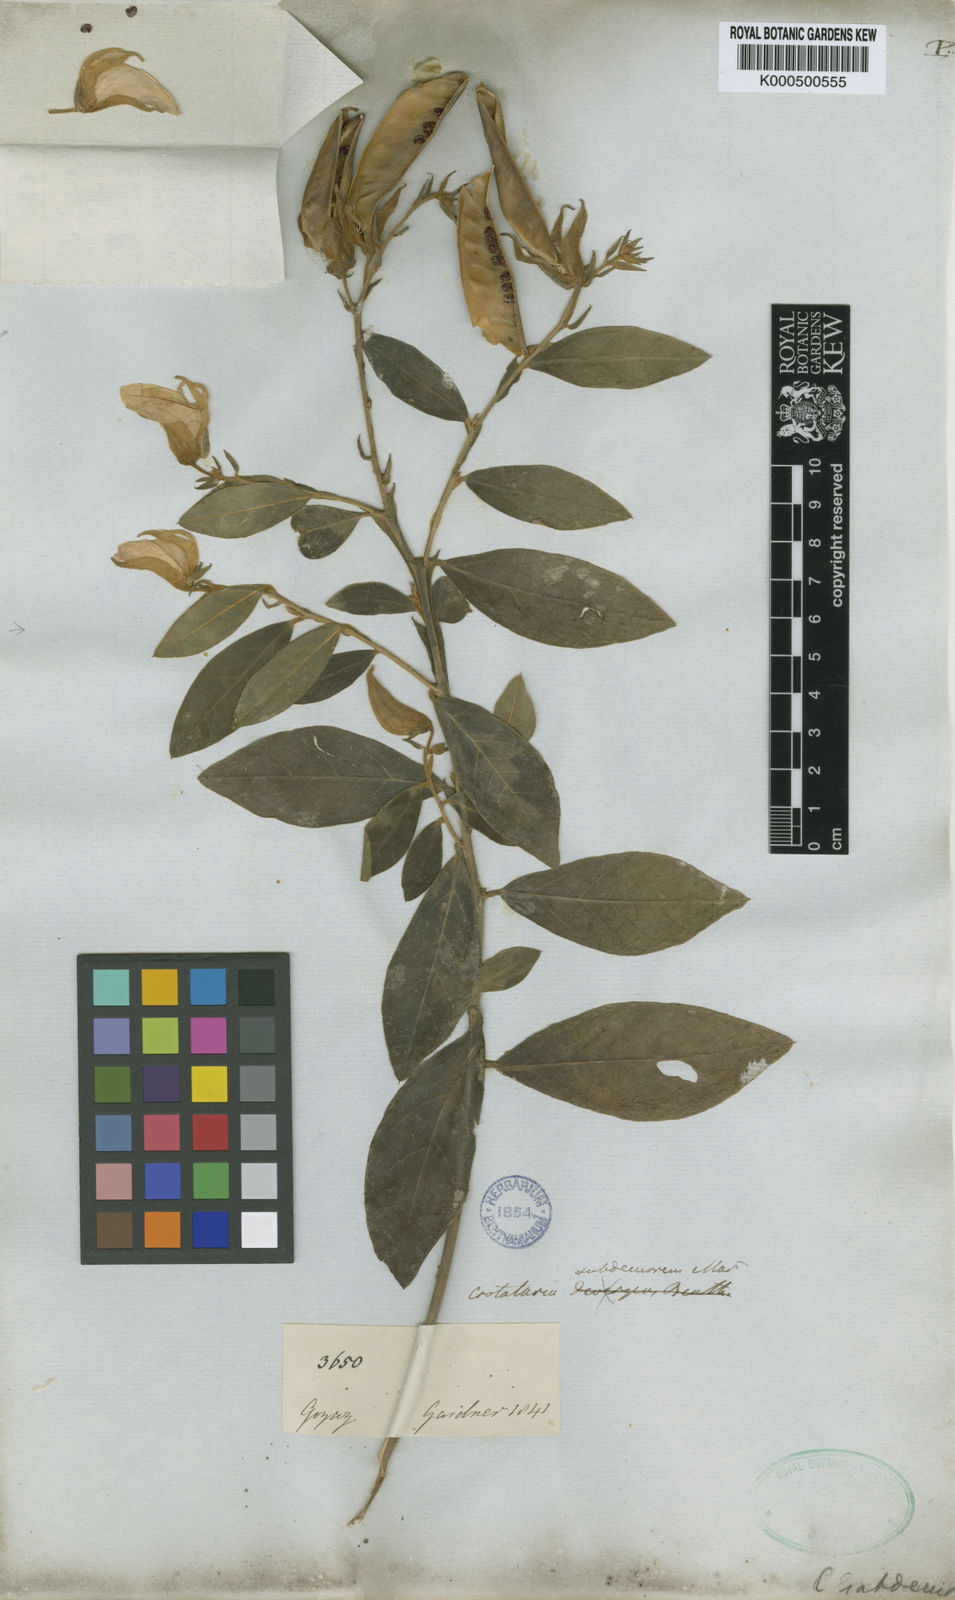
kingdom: Plantae
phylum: Tracheophyta
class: Magnoliopsida
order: Fabales
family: Fabaceae
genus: Crotalaria
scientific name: Crotalaria subdecurrens
